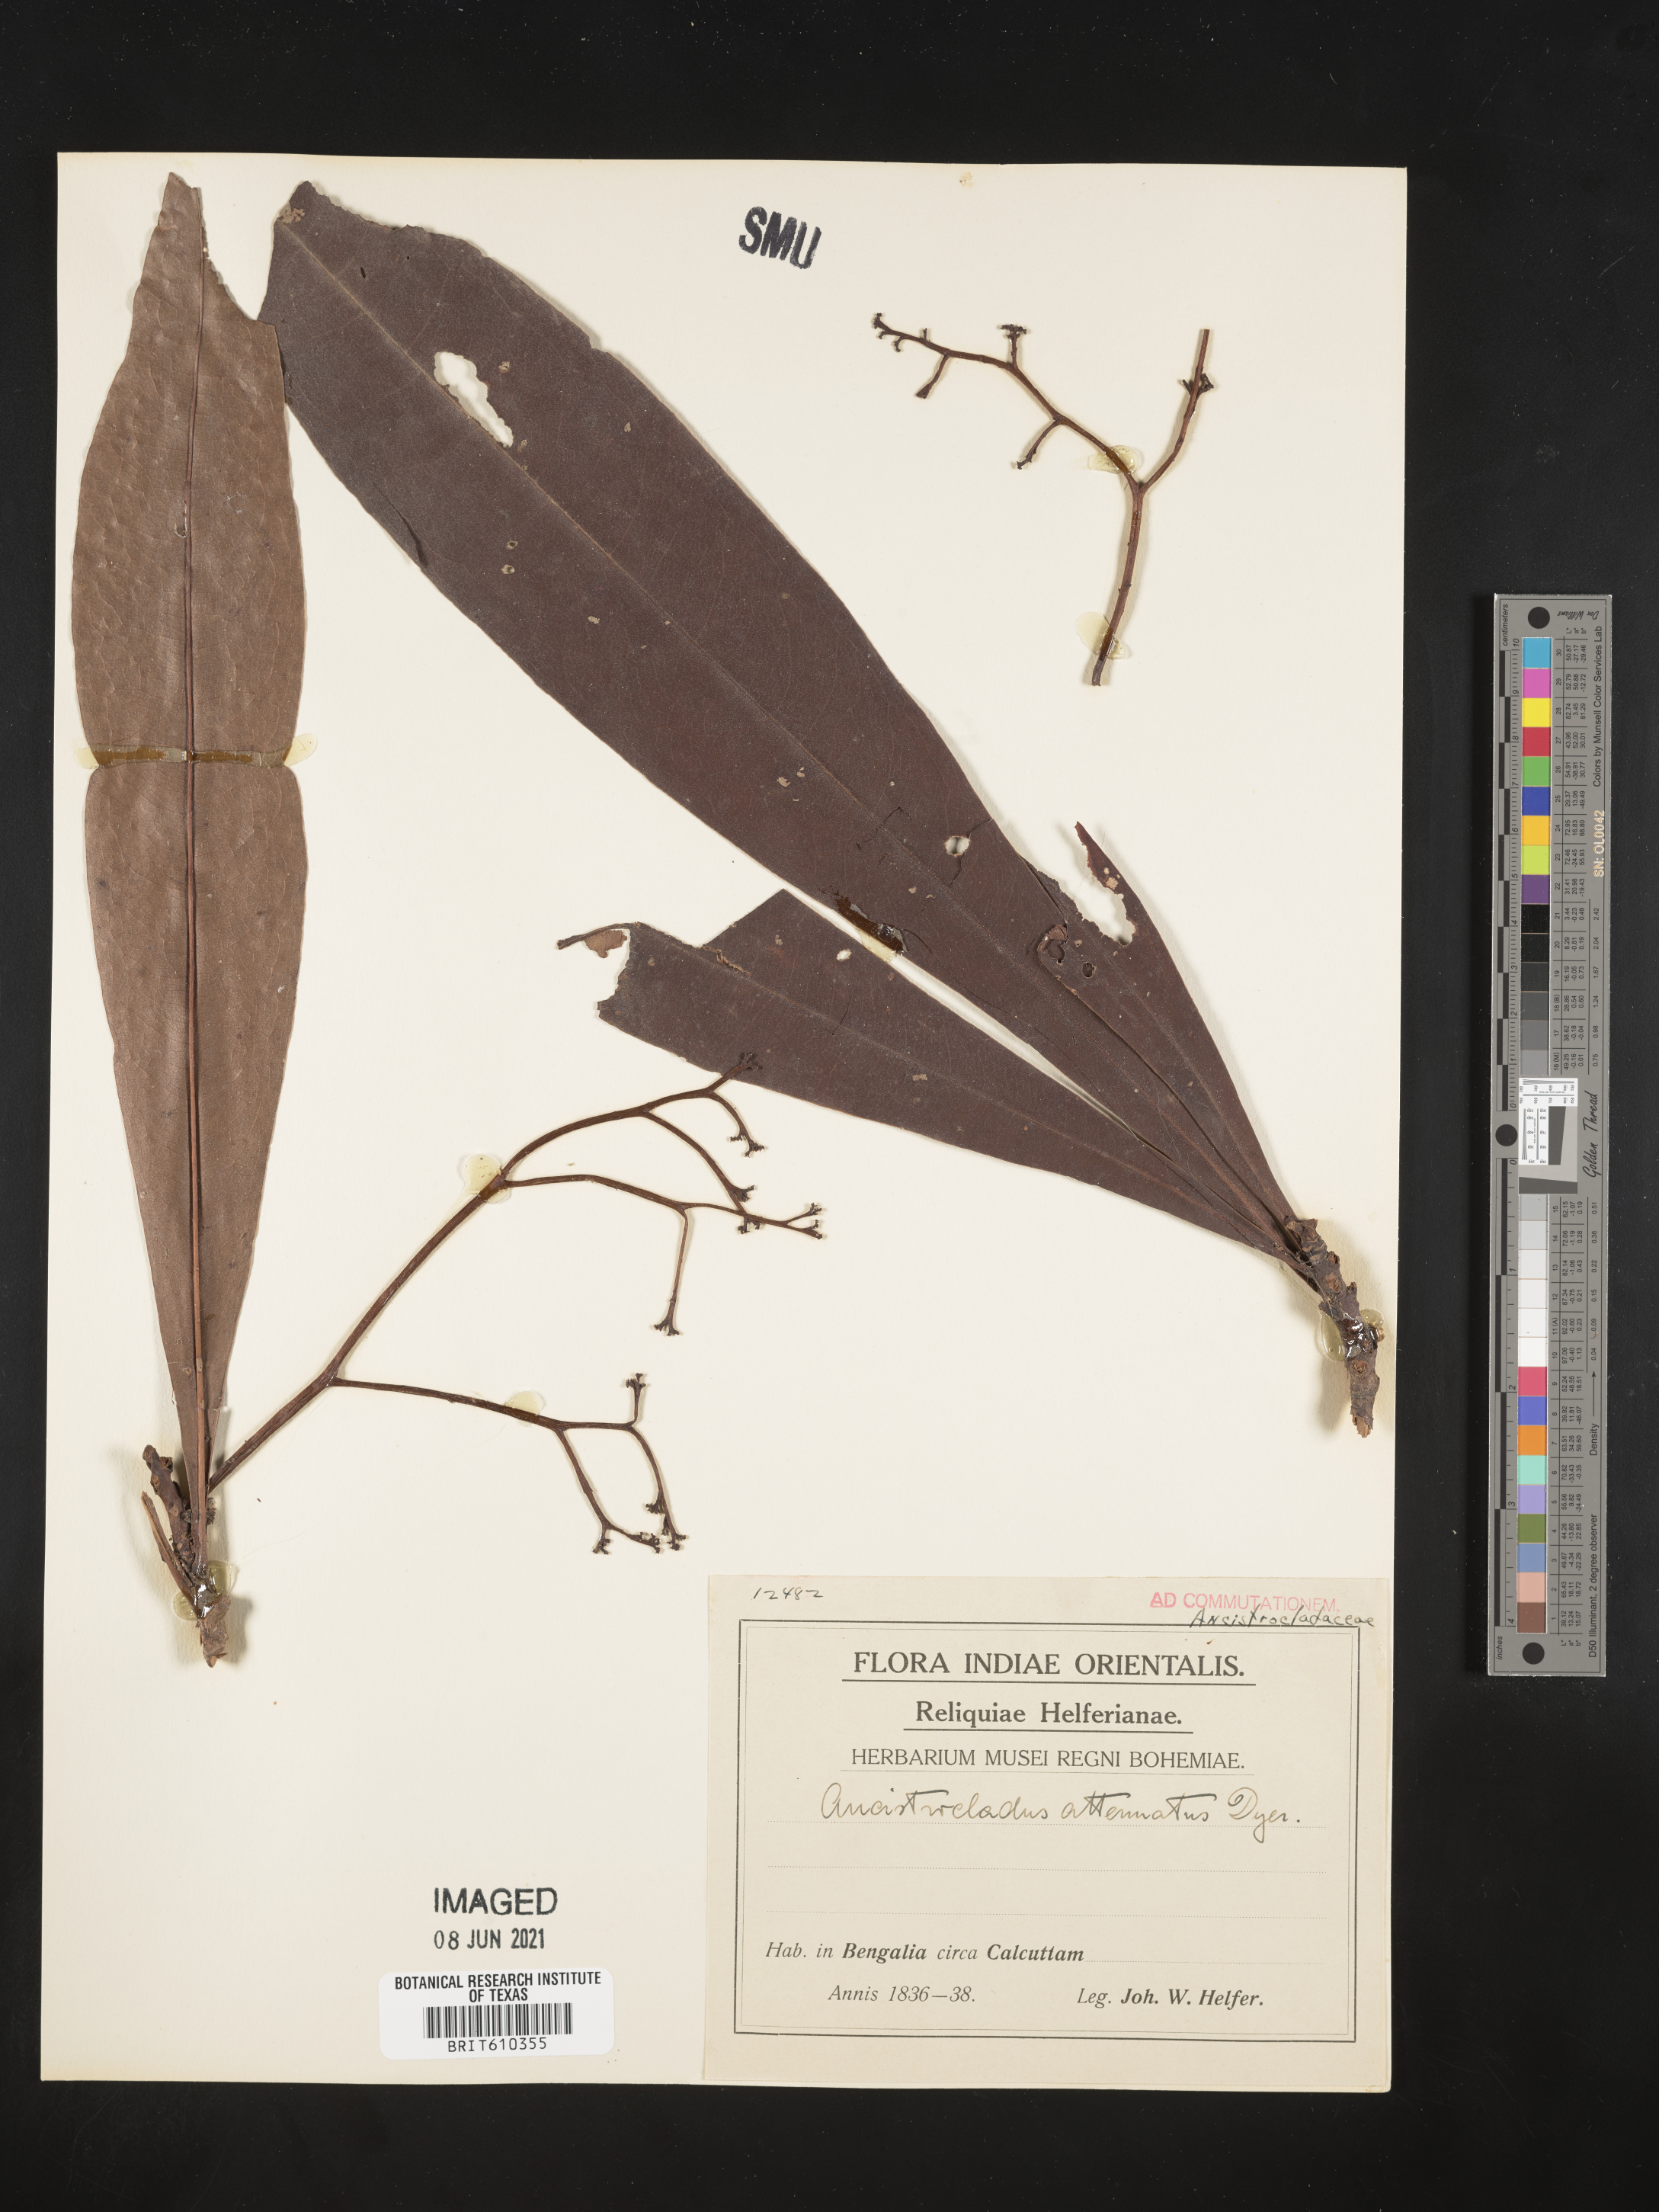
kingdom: Plantae
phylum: Tracheophyta
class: Magnoliopsida
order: Caryophyllales
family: Ancistrocladaceae
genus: Ancistrocladus
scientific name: Ancistrocladus attenuatus
